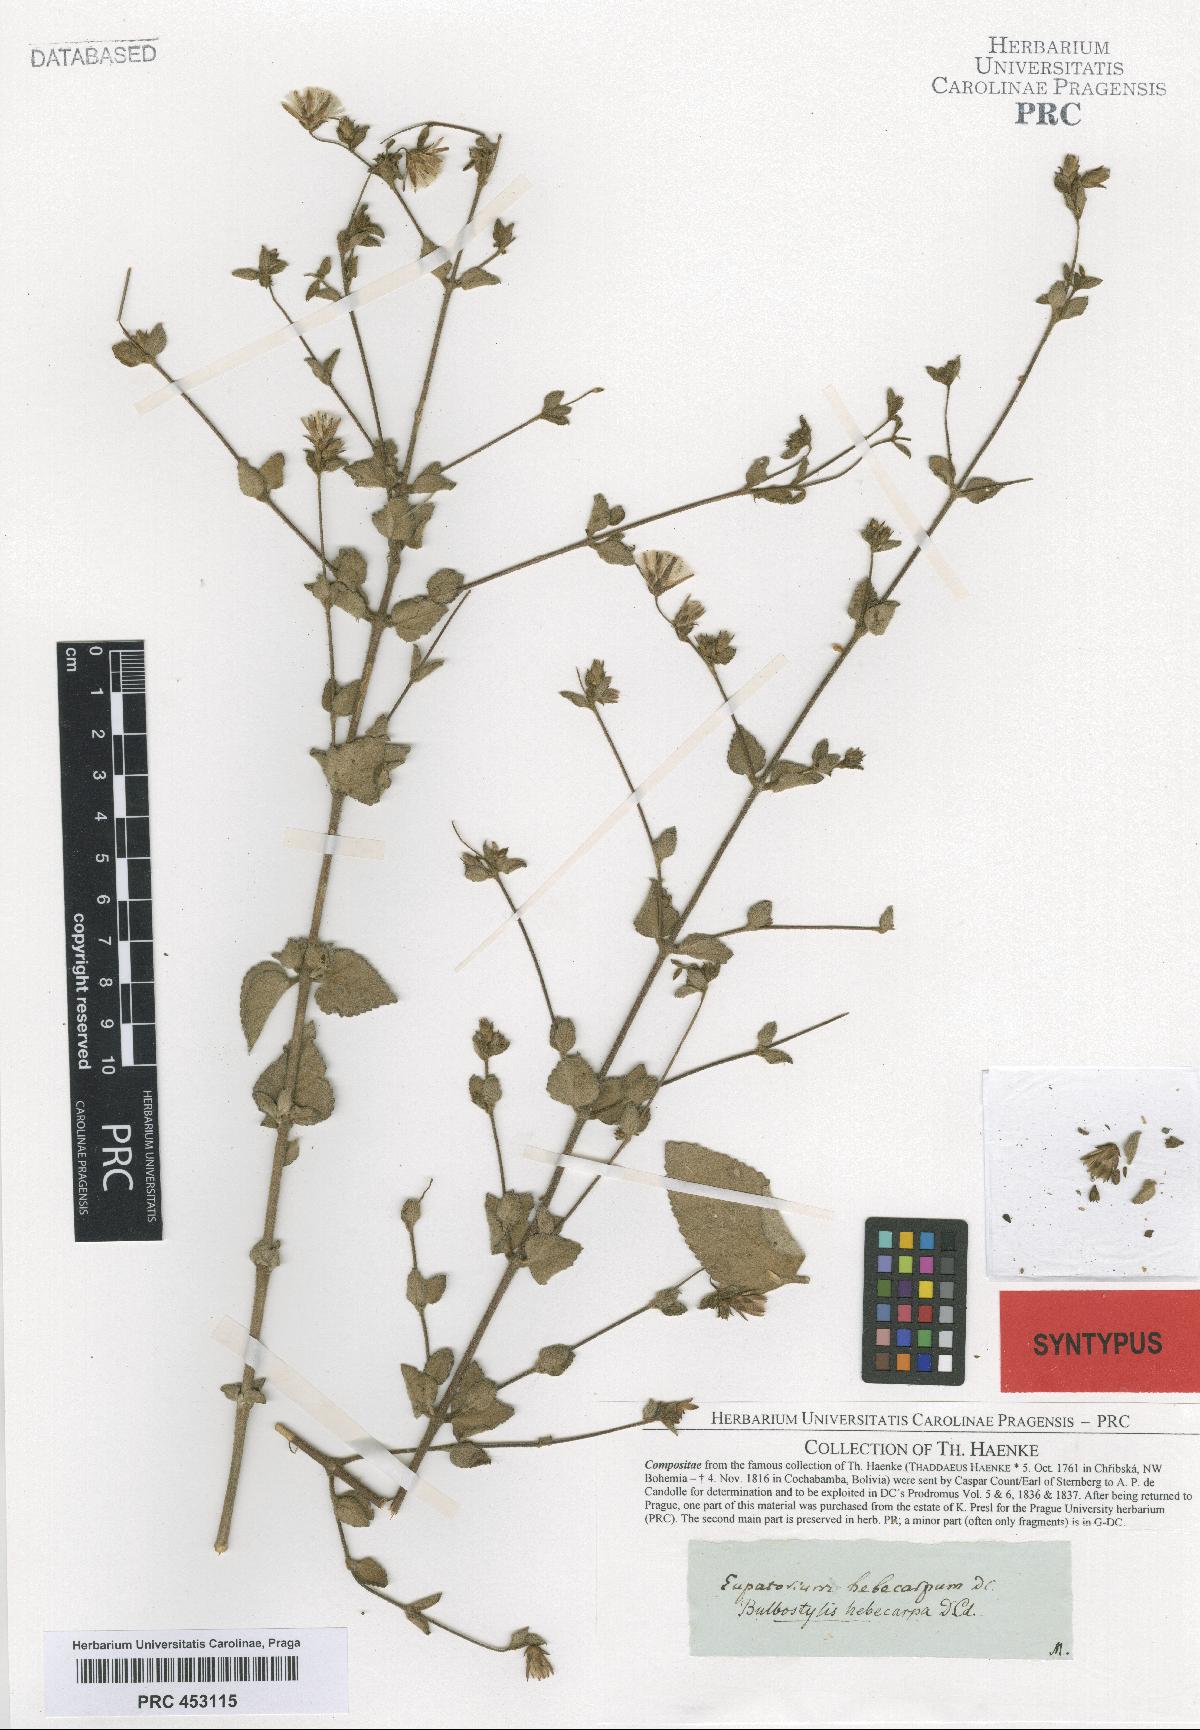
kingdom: Plantae
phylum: Tracheophyta
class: Magnoliopsida
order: Asterales
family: Asteraceae
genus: Brickellia
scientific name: Brickellia paniculata
